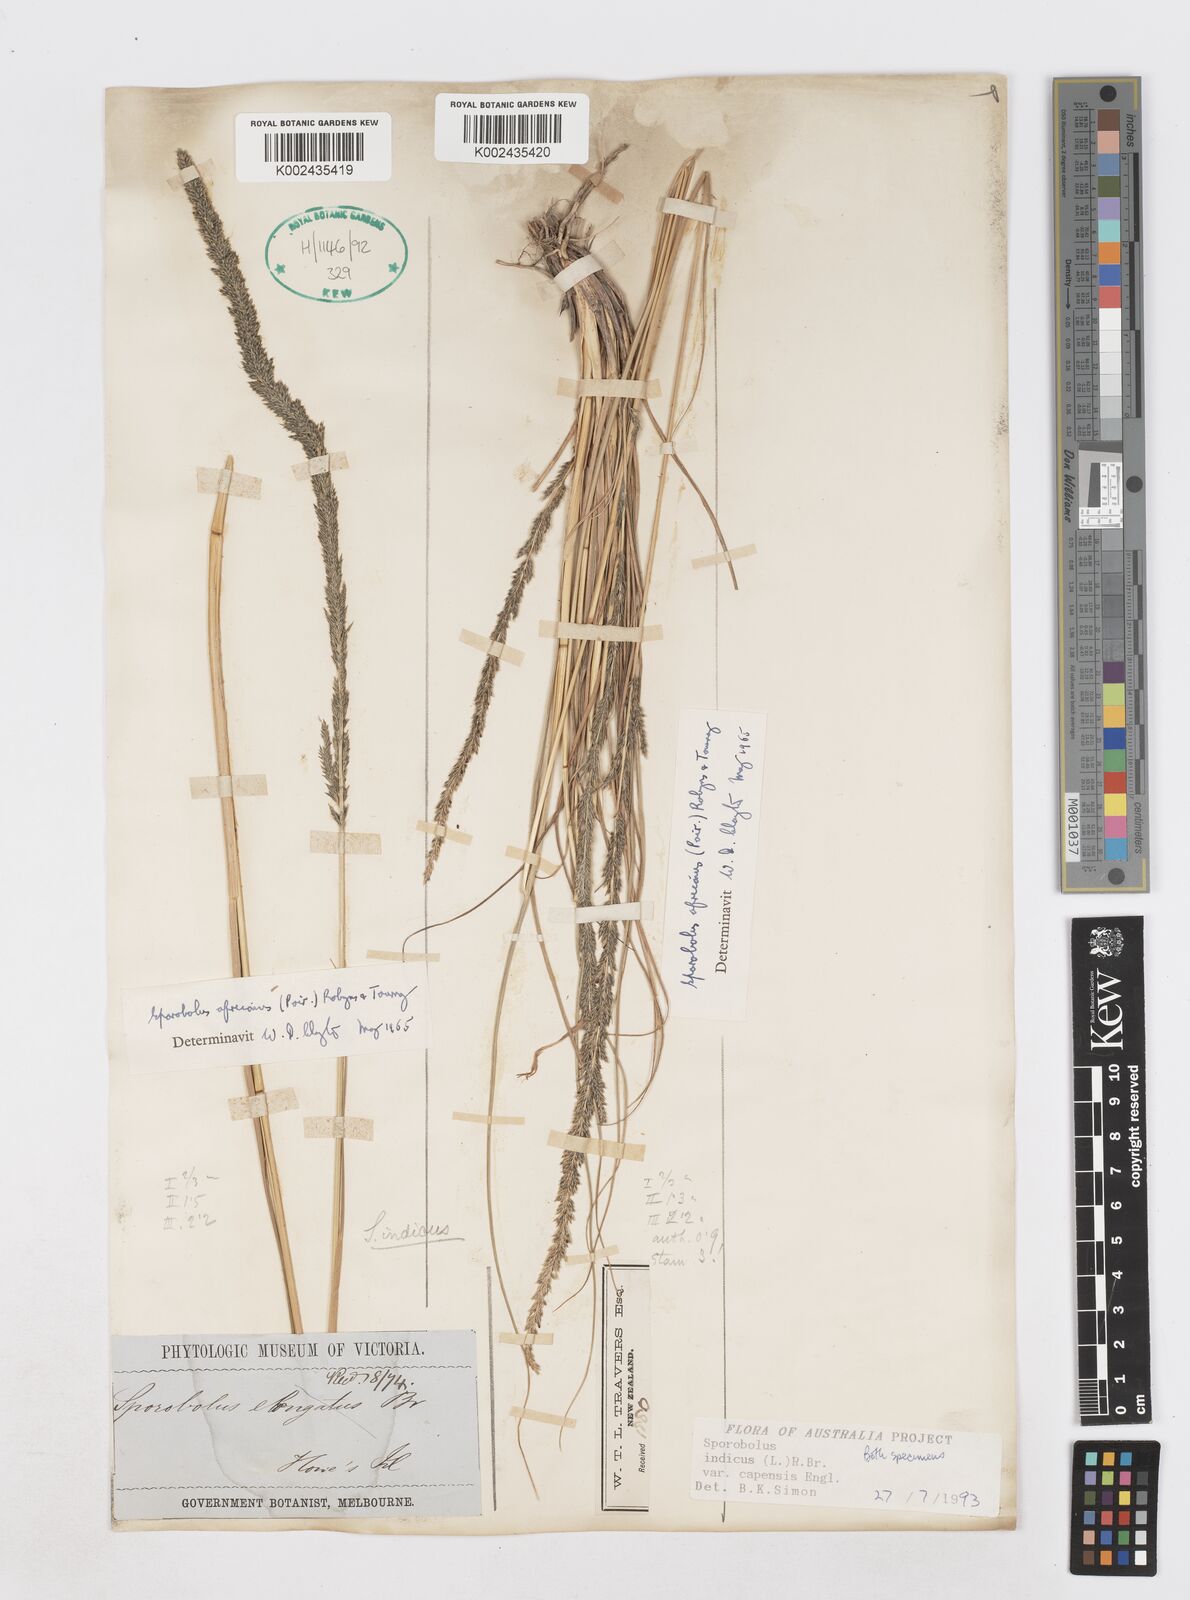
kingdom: Plantae
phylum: Tracheophyta
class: Liliopsida
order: Poales
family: Poaceae
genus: Sporobolus
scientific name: Sporobolus africanus
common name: African dropseed
